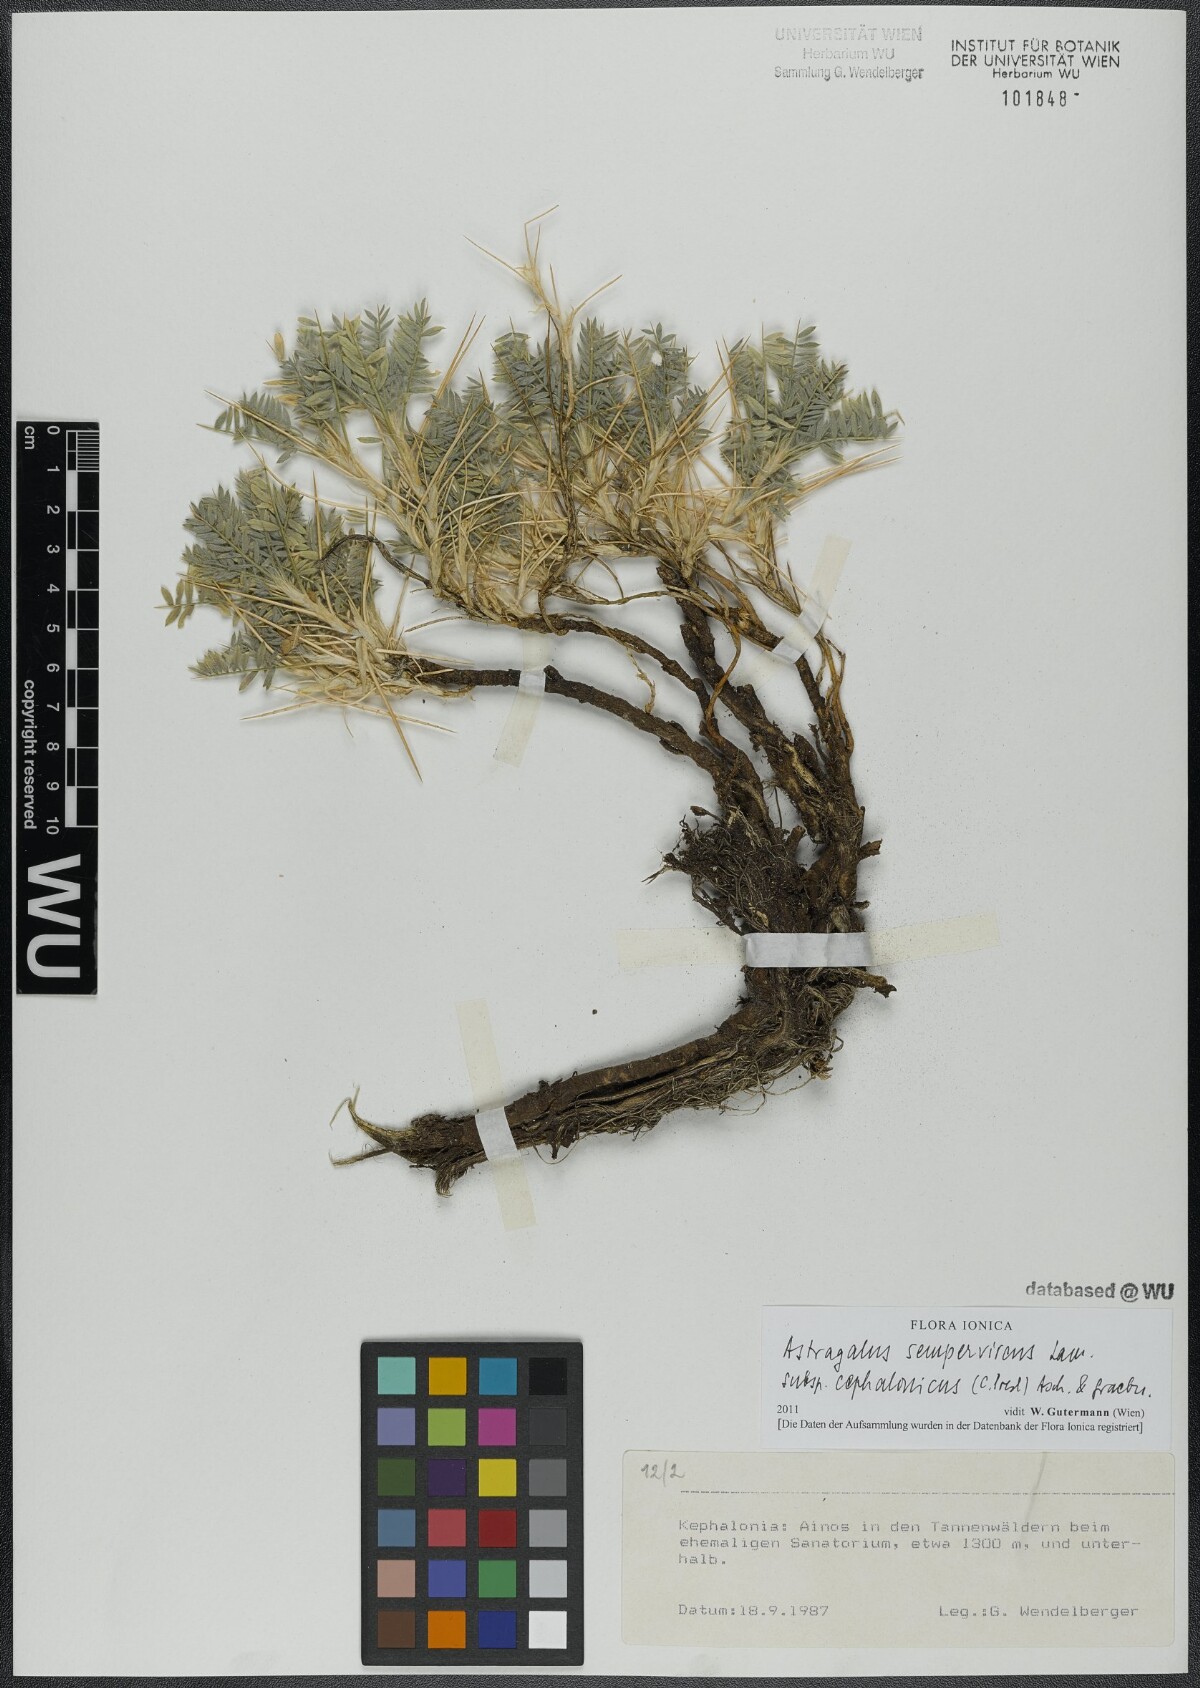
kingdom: Plantae
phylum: Tracheophyta
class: Magnoliopsida
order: Fabales
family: Fabaceae
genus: Astragalus
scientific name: Astragalus sempervirens
